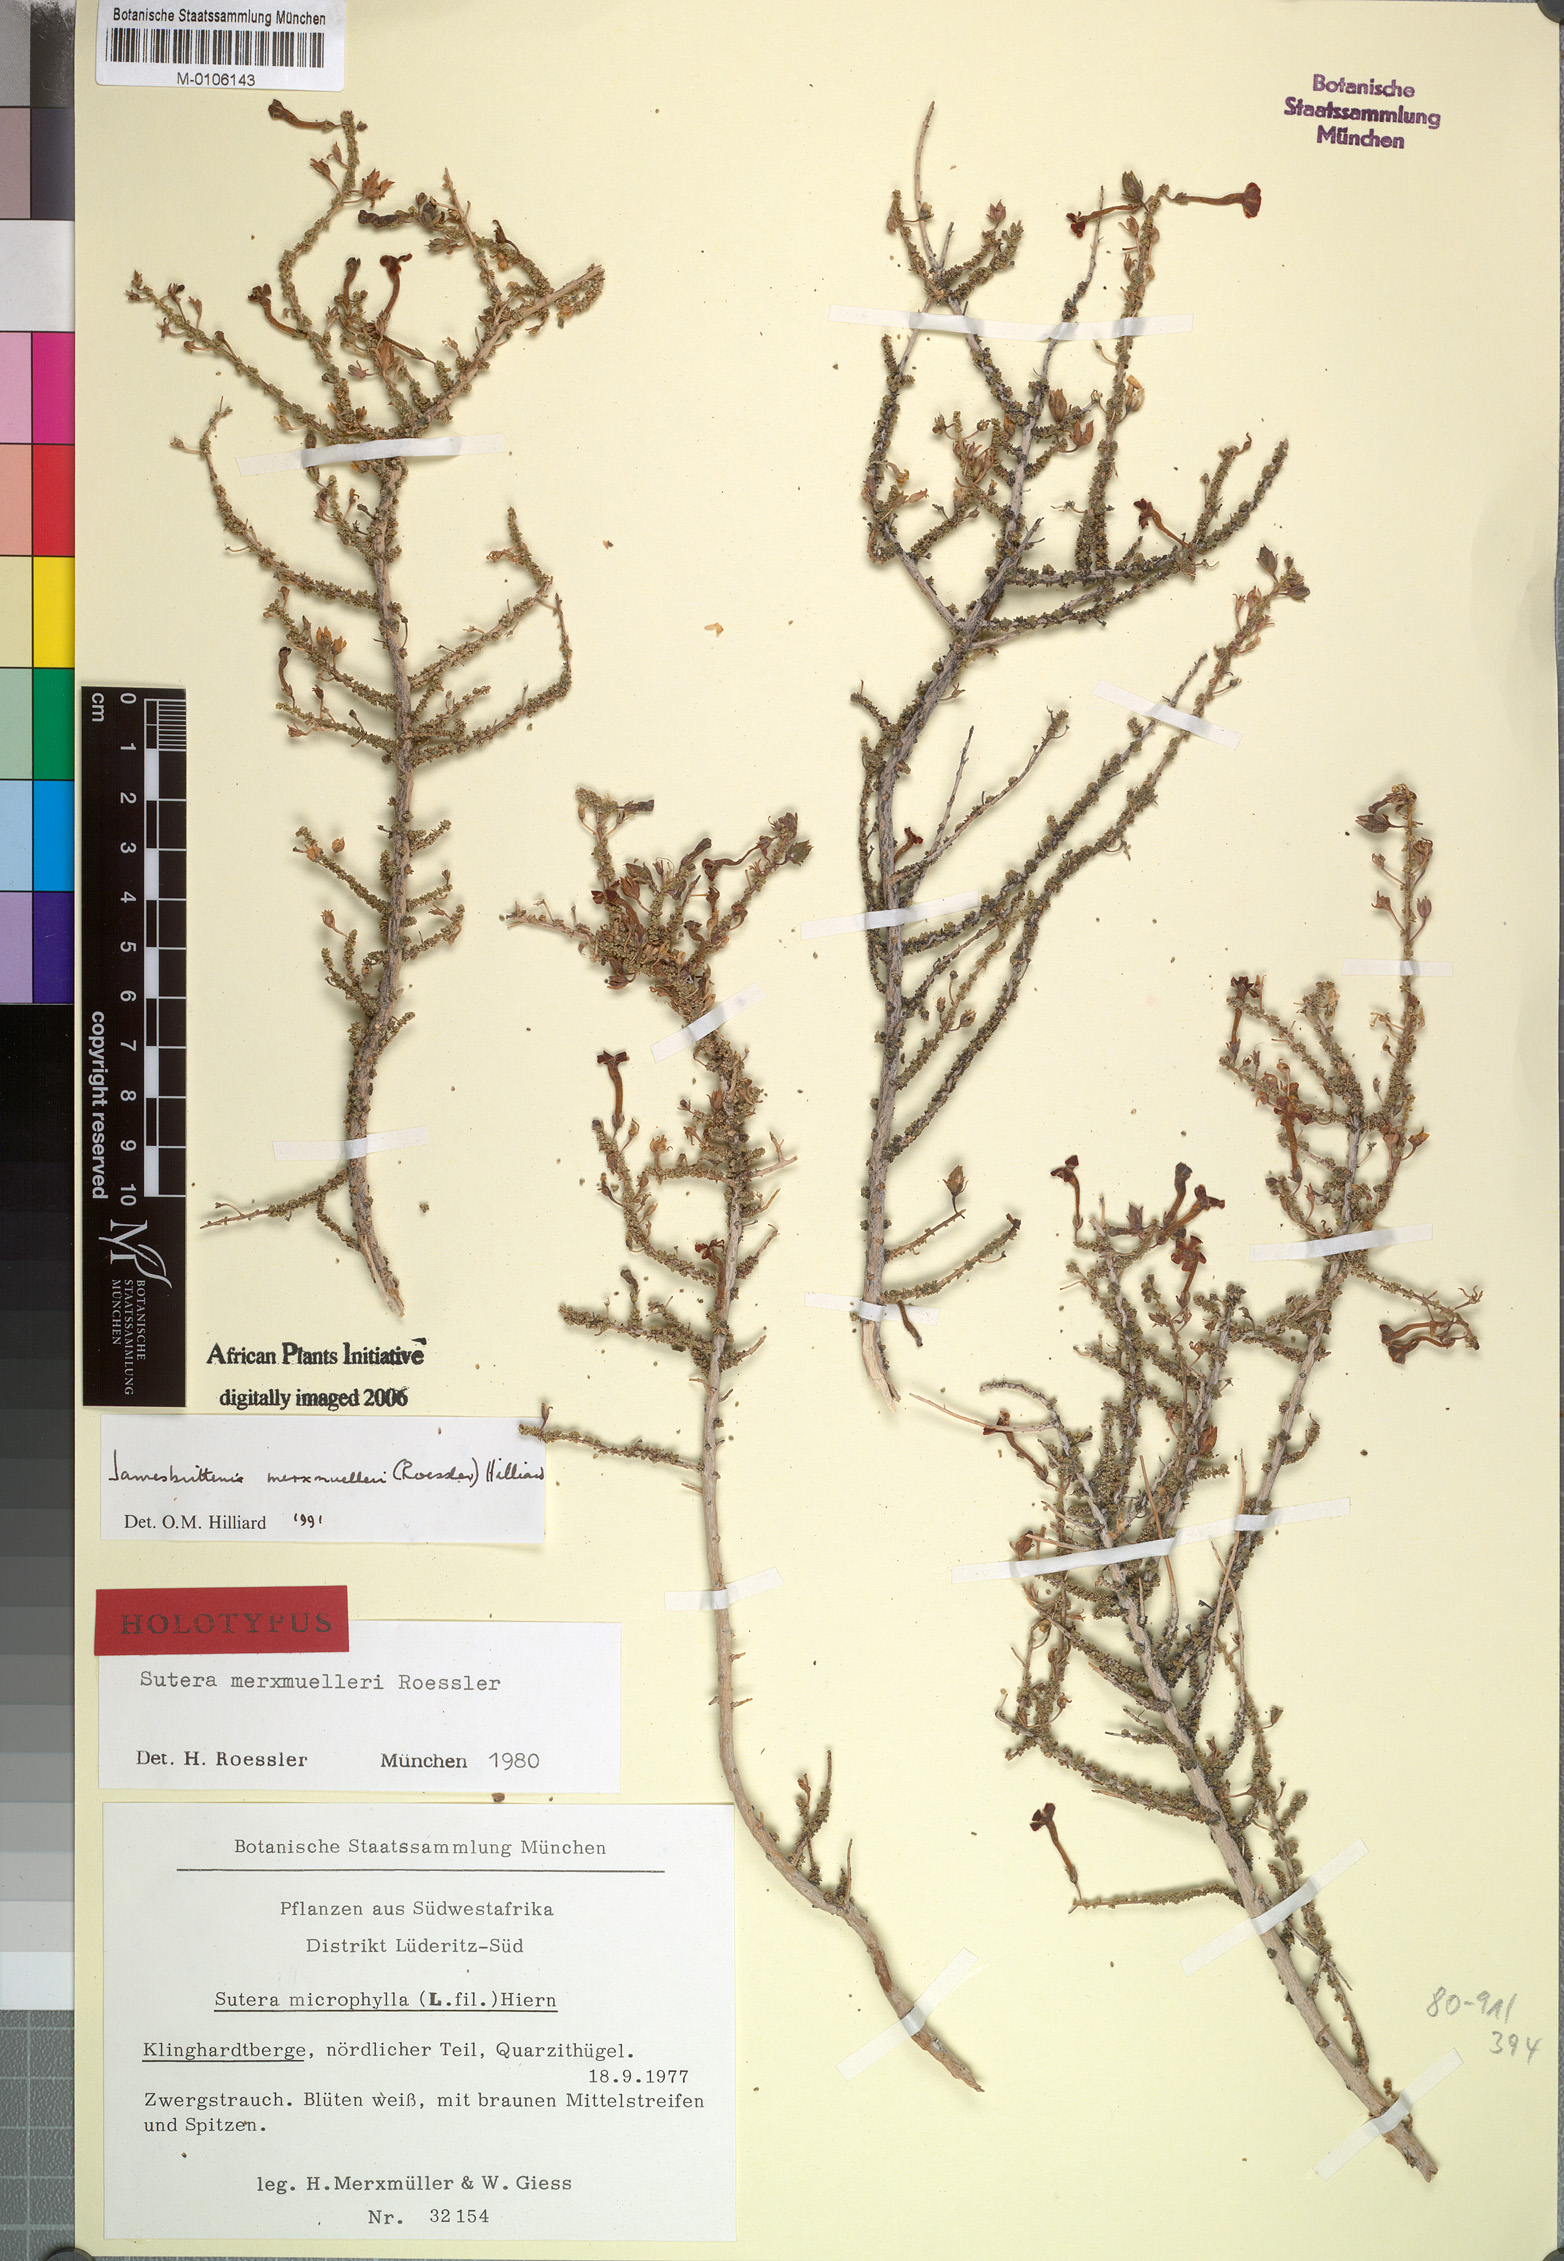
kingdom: Plantae
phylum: Tracheophyta
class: Magnoliopsida
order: Lamiales
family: Scrophulariaceae
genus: Jamesbrittenia
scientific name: Jamesbrittenia merxmuelleri
